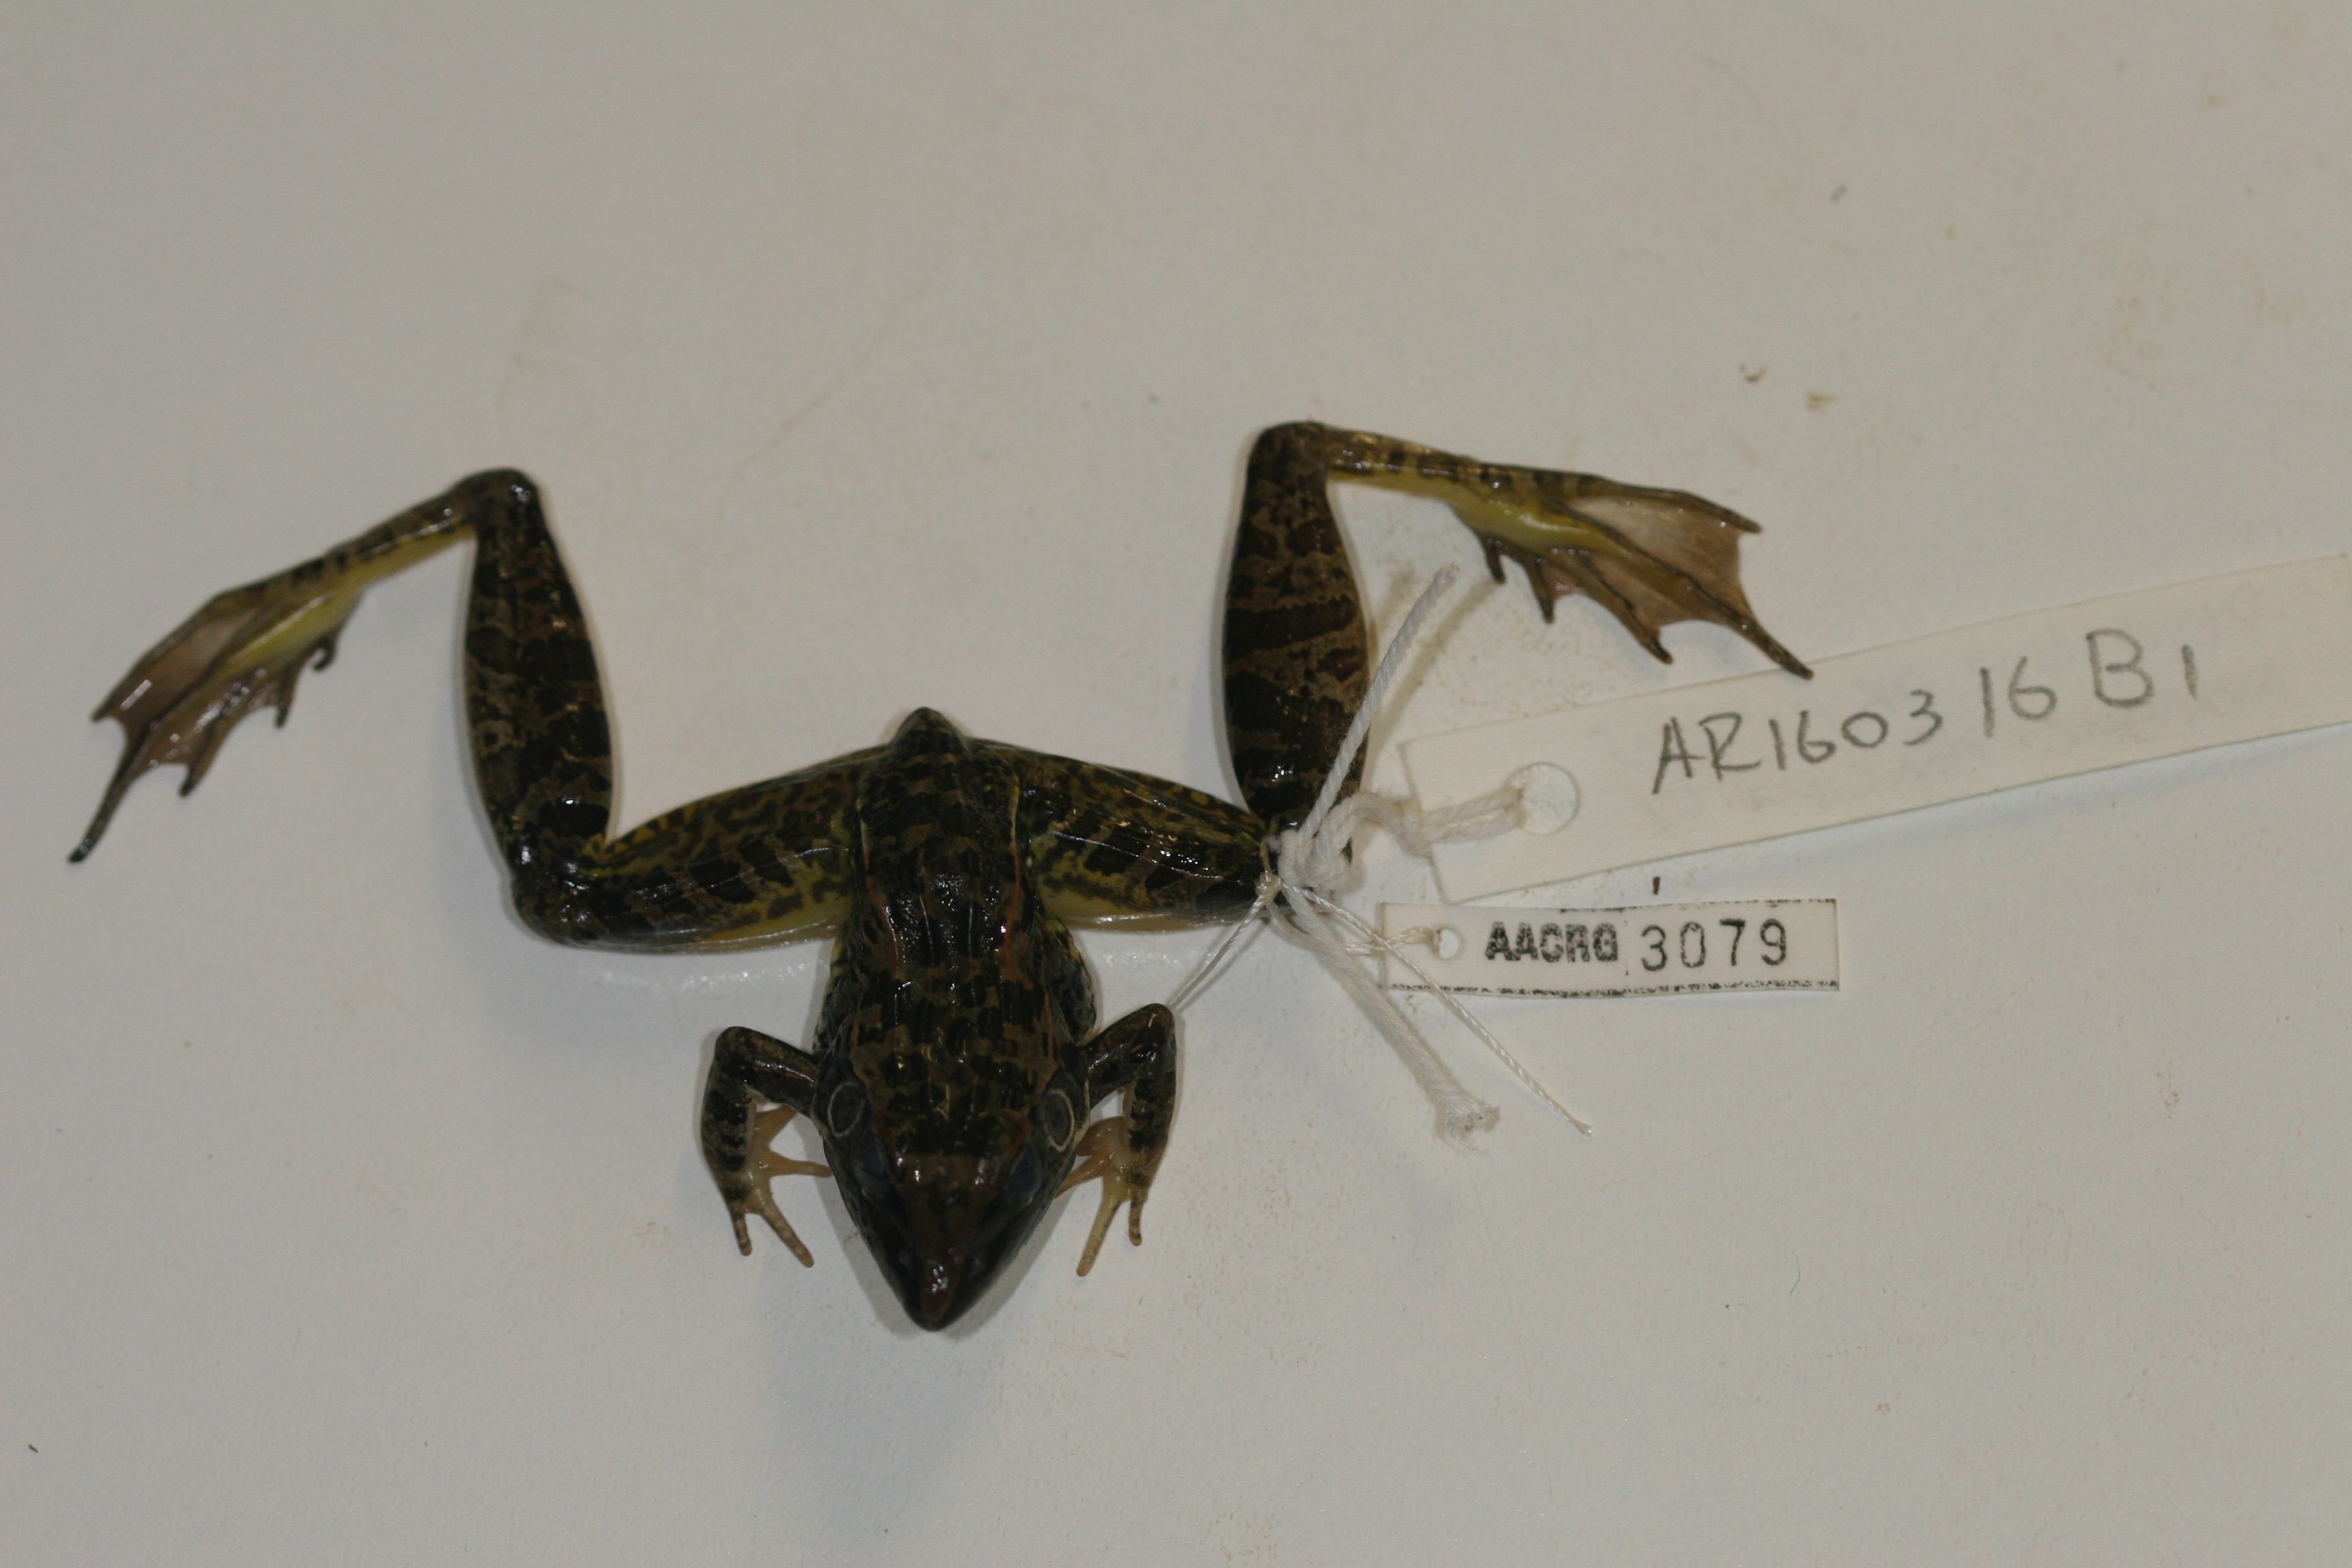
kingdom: Animalia
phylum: Chordata
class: Amphibia
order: Anura
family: Ptychadenidae
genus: Ptychadena
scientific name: Ptychadena oxyrhynchus
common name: Sharp-nosed ridged frog
